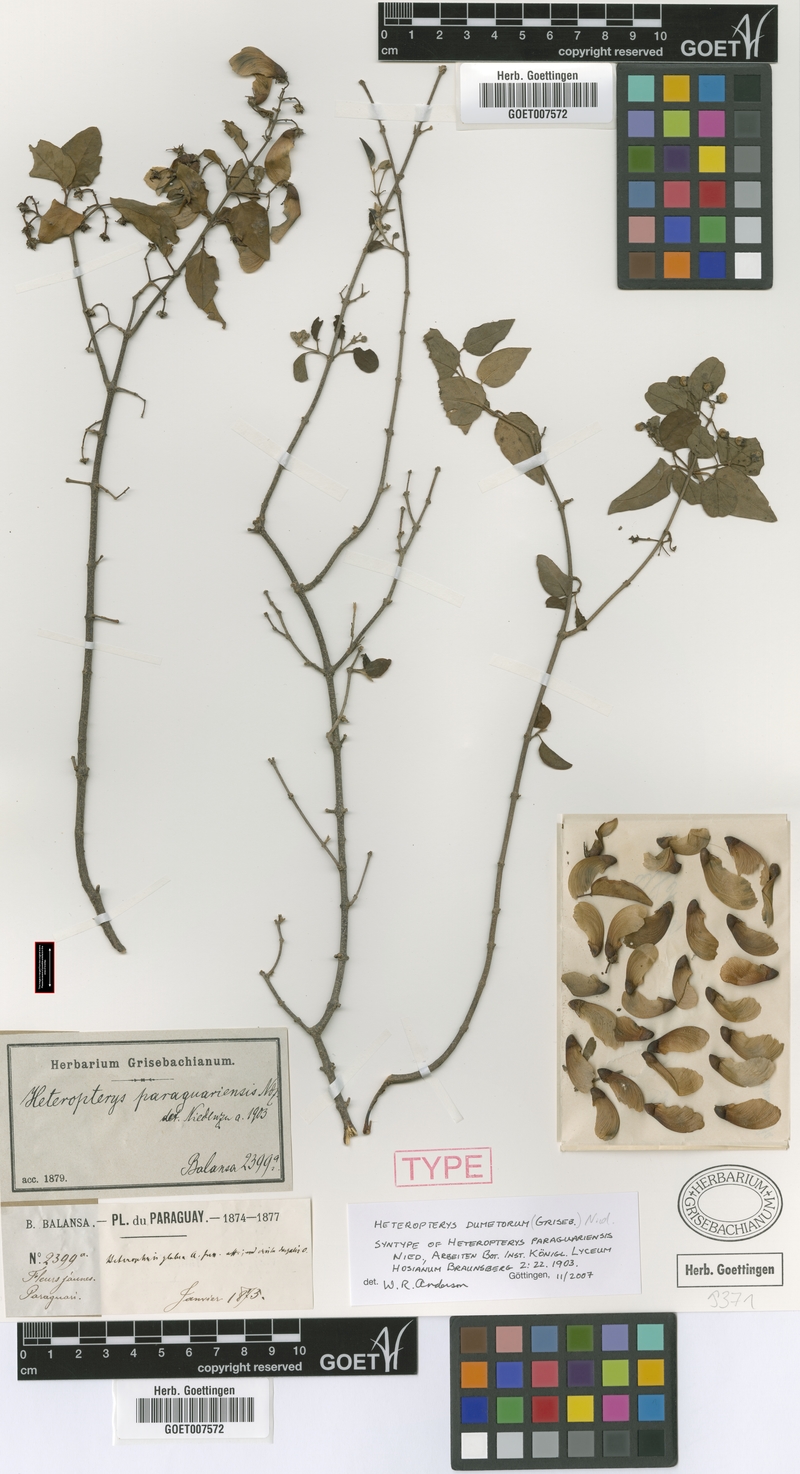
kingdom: Plantae
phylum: Tracheophyta
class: Magnoliopsida
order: Malpighiales
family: Malpighiaceae
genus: Heteropterys
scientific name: Heteropterys dumetorum
